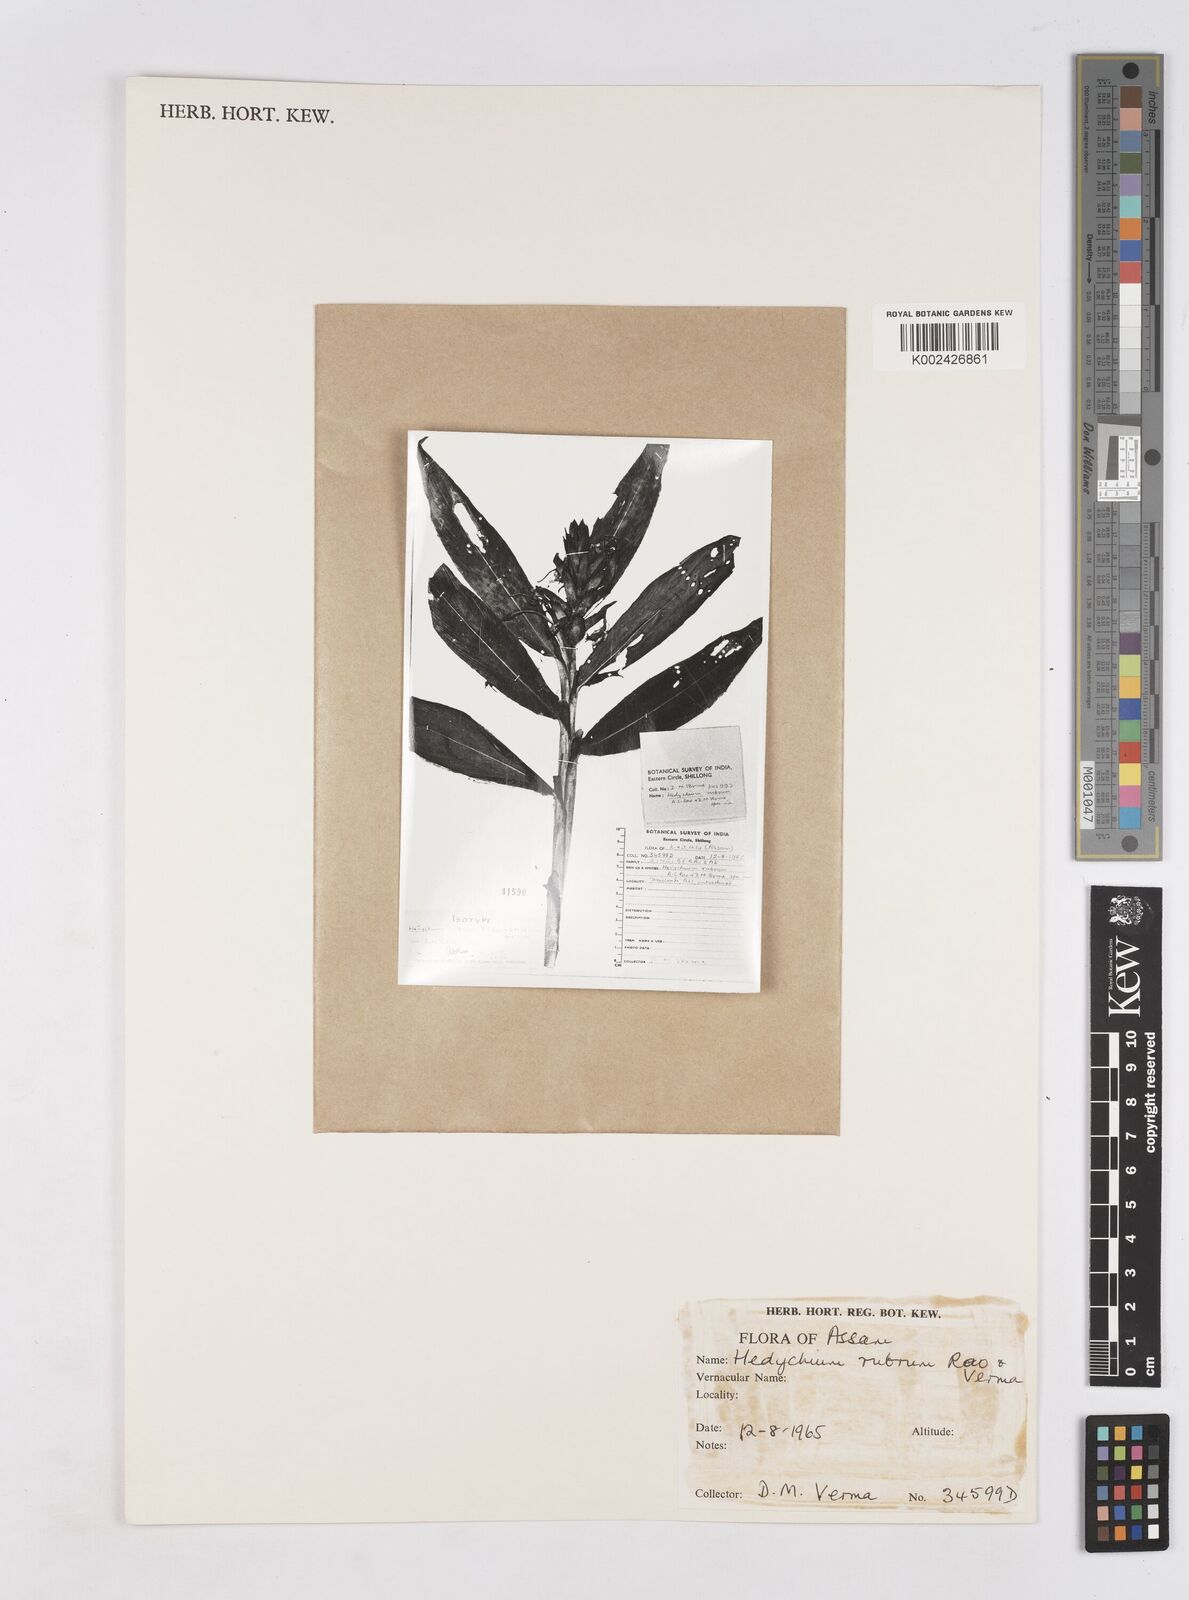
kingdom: Plantae
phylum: Tracheophyta
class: Liliopsida
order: Zingiberales
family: Zingiberaceae
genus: Hedychium
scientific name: Hedychium deceptum
